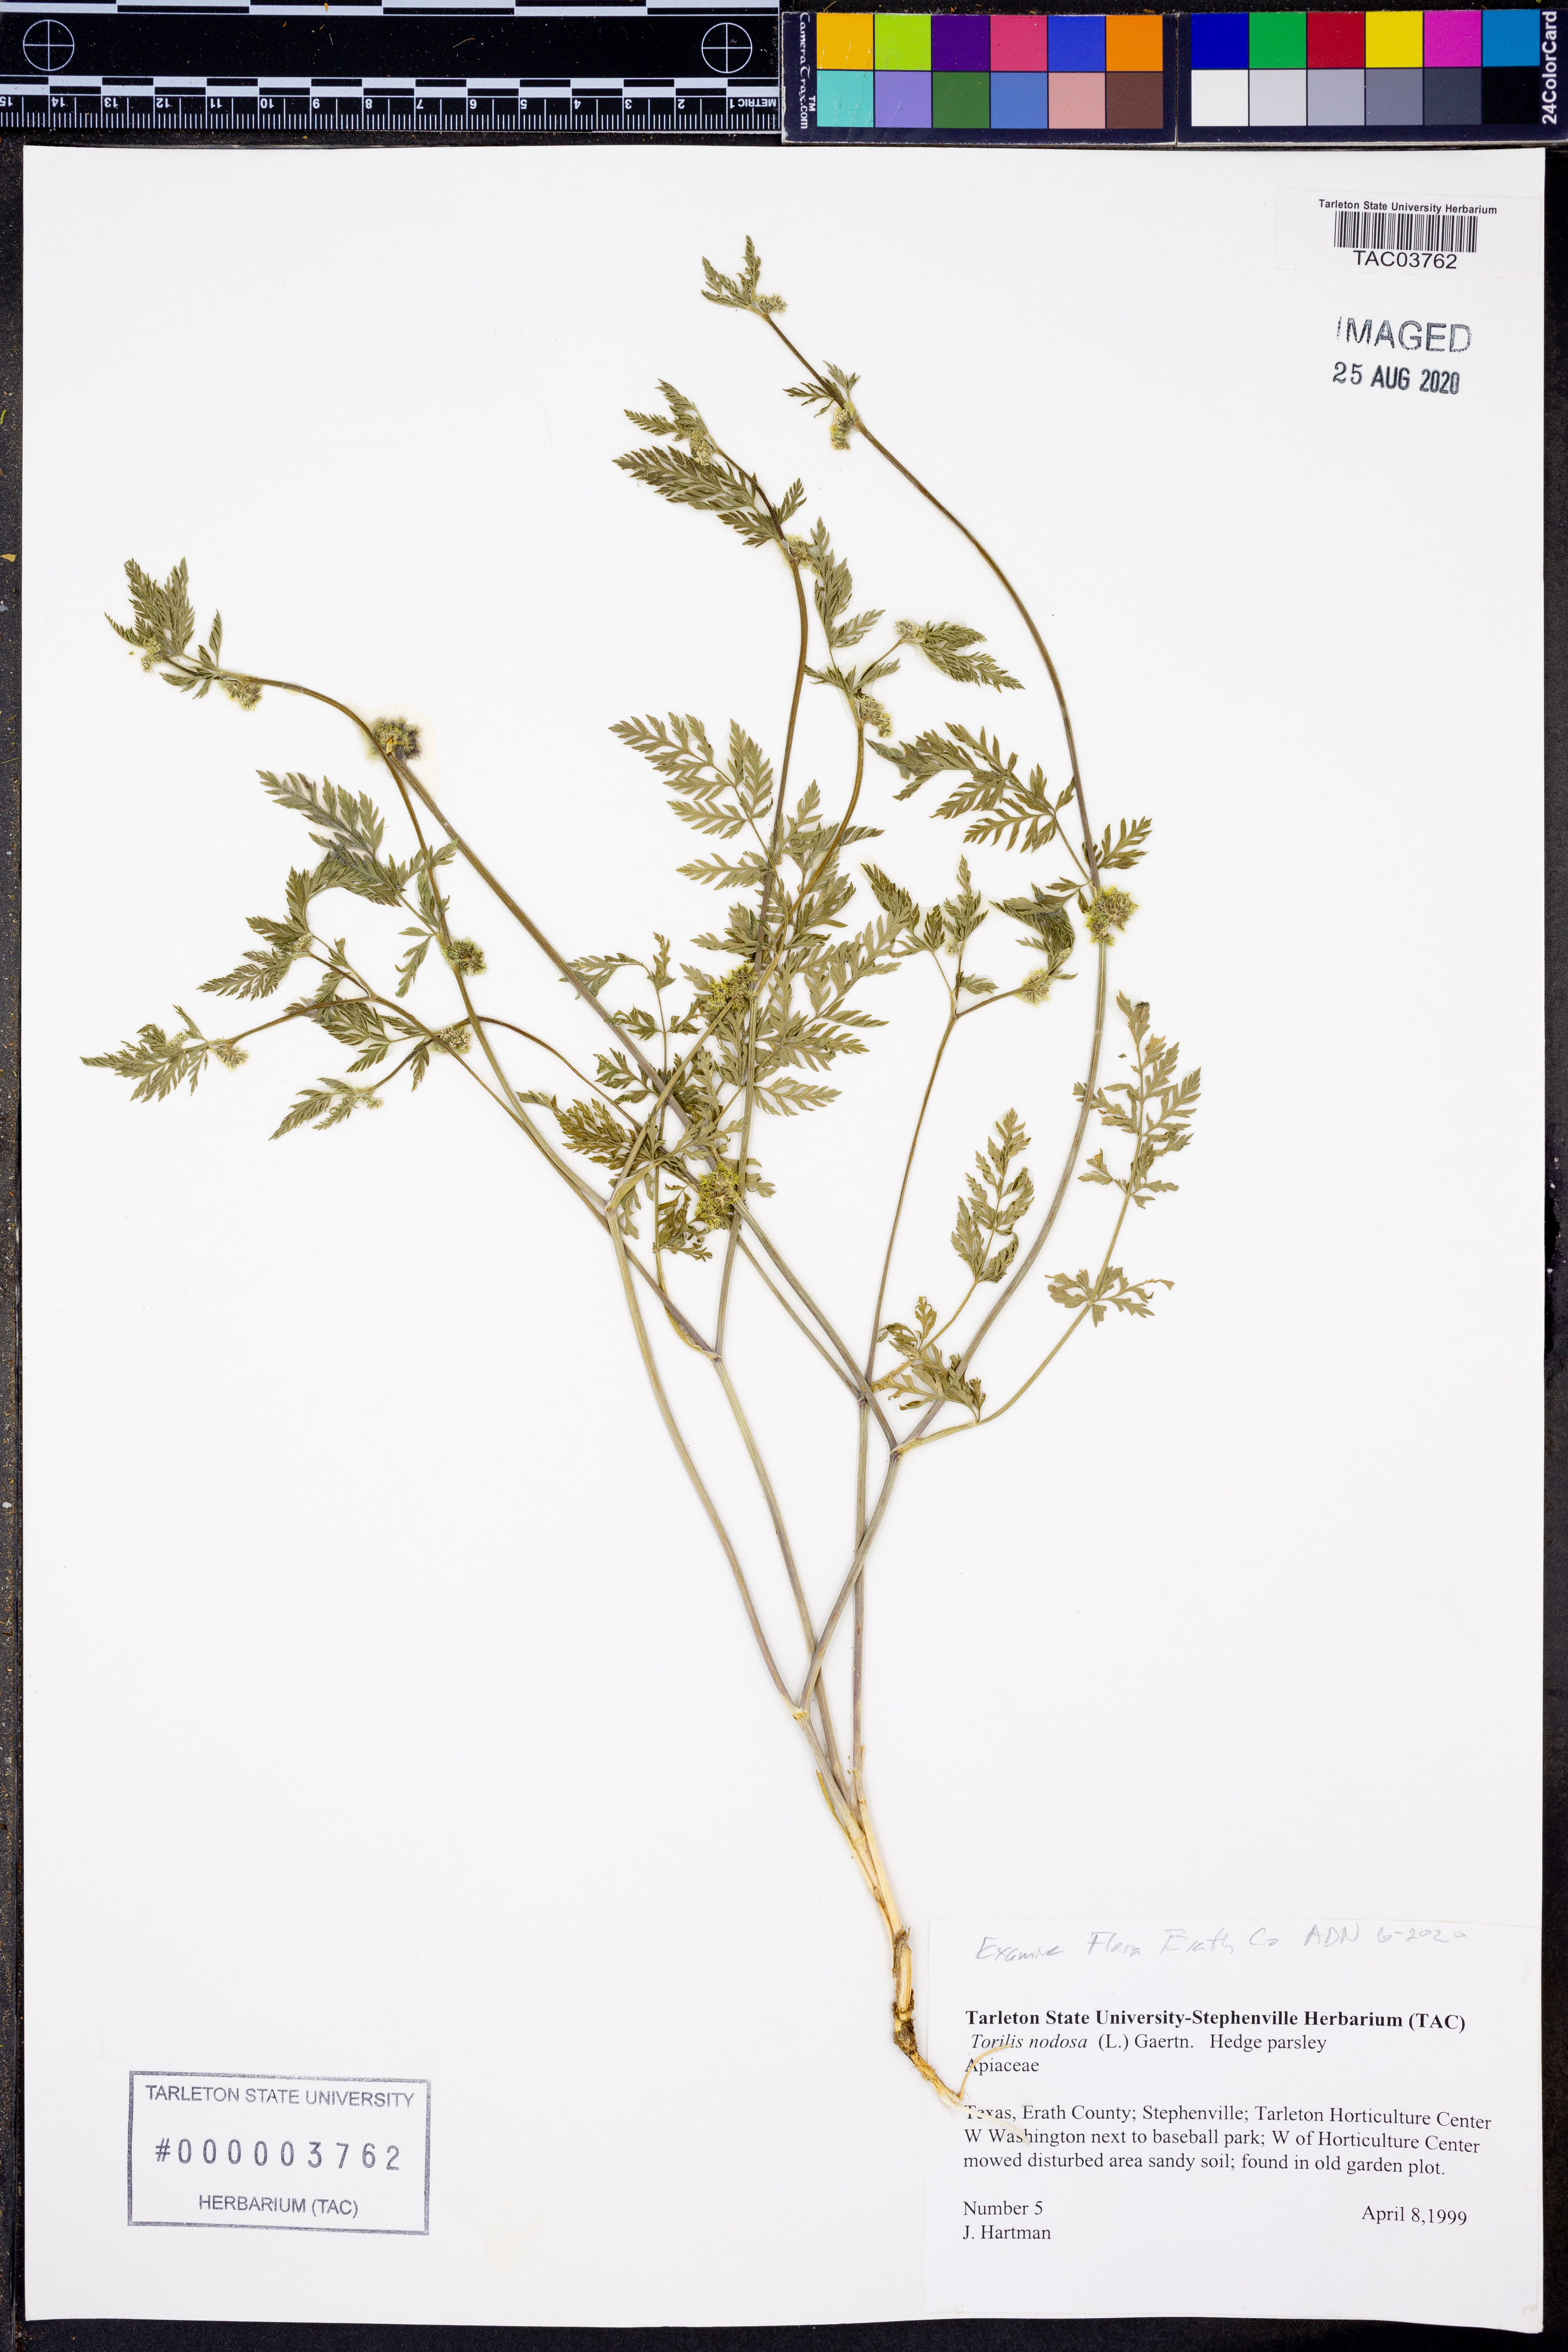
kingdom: Plantae
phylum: Tracheophyta
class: Magnoliopsida
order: Apiales
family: Apiaceae
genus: Torilis
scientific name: Torilis nodosa
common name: Knotted hedge-parsley
